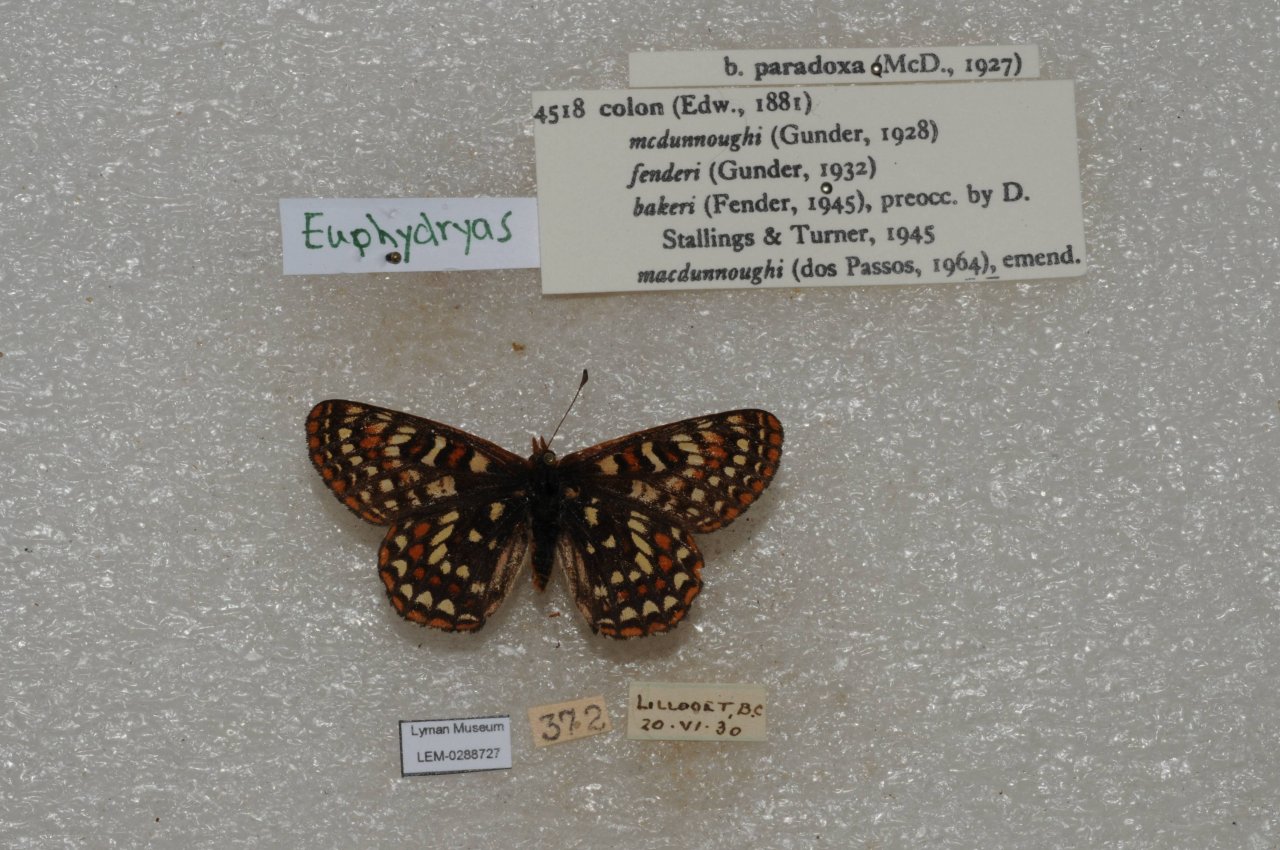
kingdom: Animalia
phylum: Arthropoda
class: Insecta
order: Lepidoptera
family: Nymphalidae
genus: Occidryas
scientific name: Occidryas colon
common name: Snowberry Checkerspot
